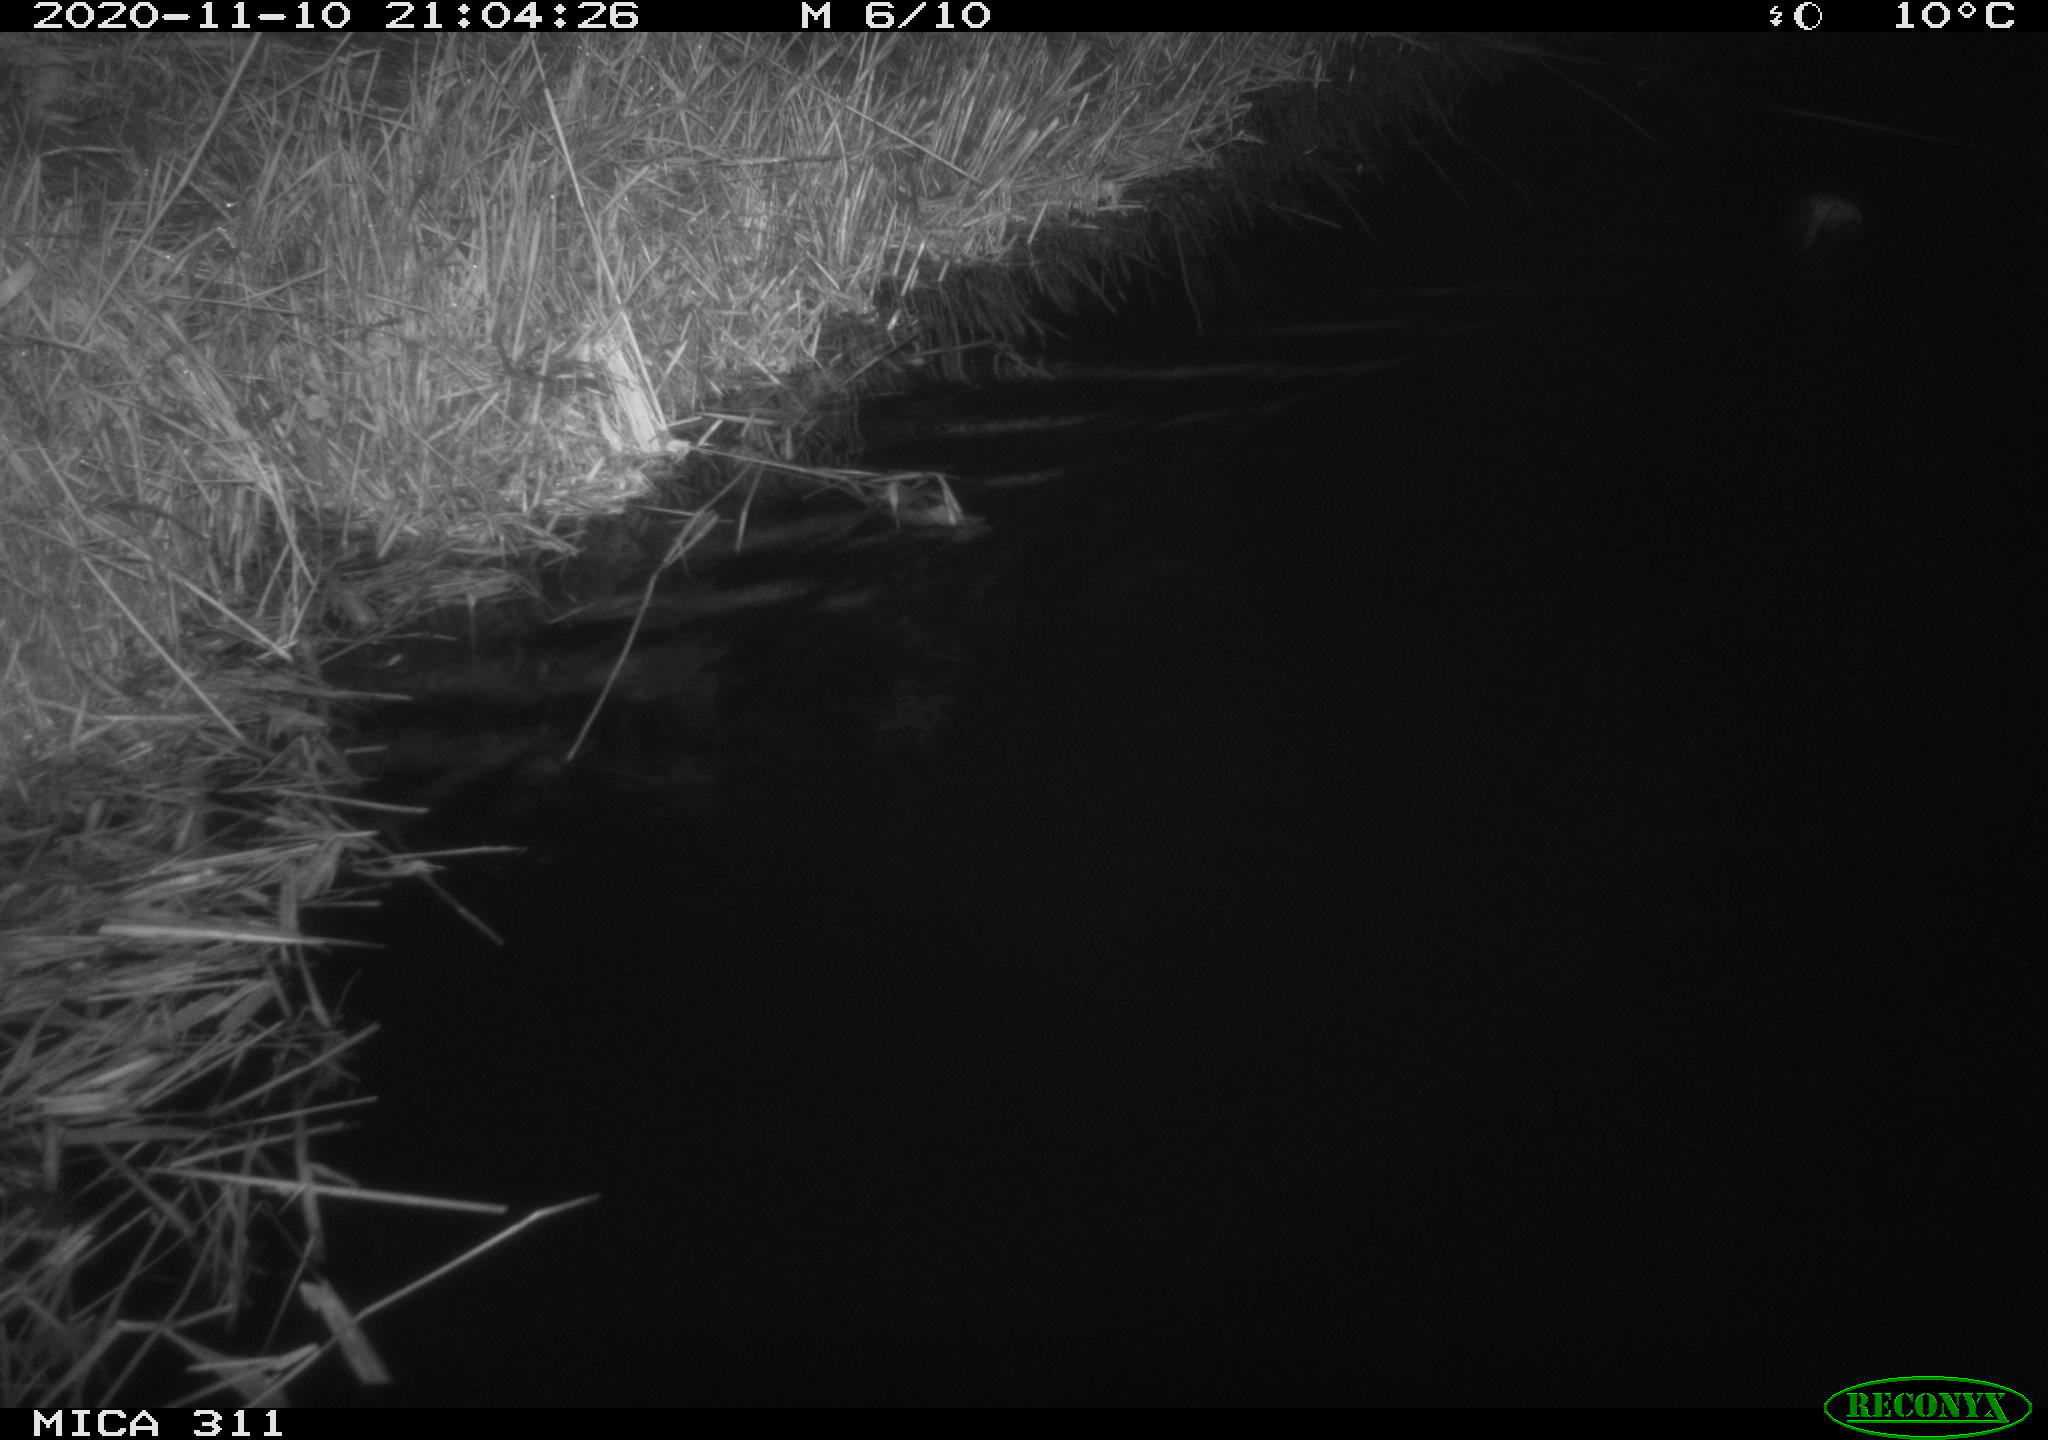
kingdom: Animalia
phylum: Chordata
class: Mammalia
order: Rodentia
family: Cricetidae
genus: Ondatra
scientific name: Ondatra zibethicus
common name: Muskrat
